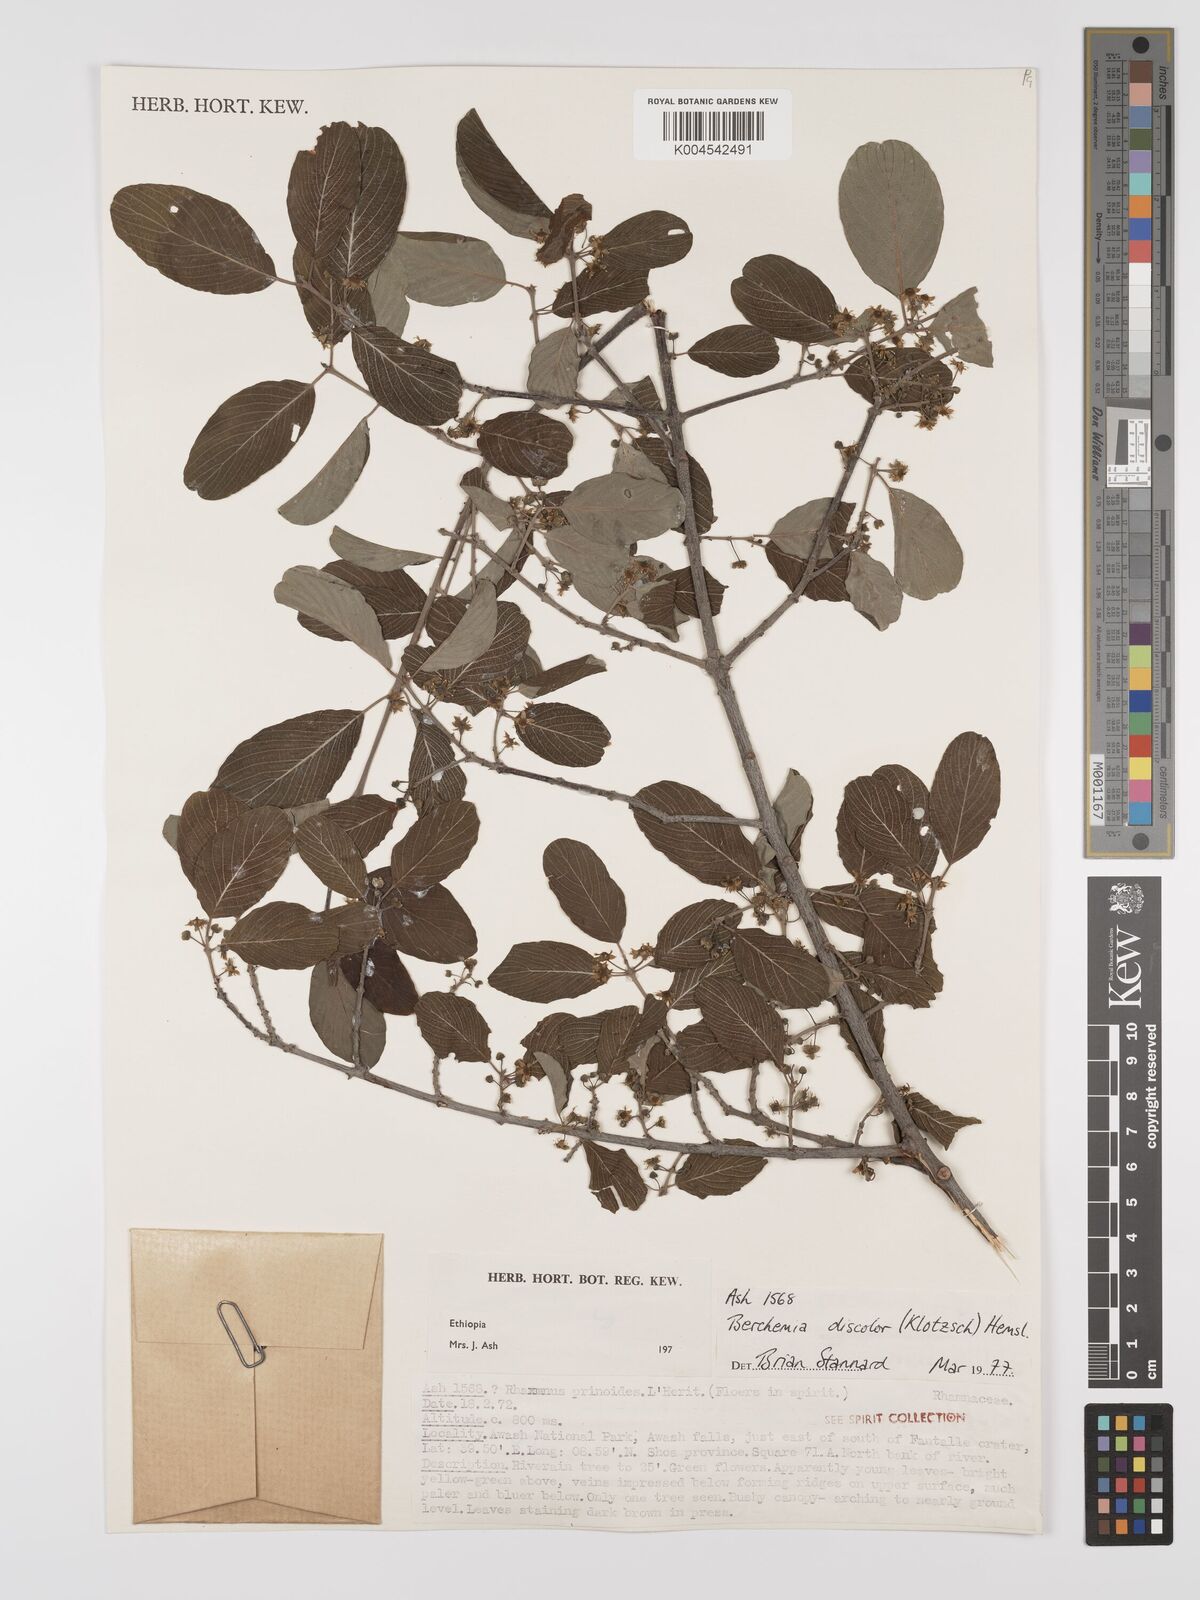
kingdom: Plantae
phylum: Tracheophyta
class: Magnoliopsida
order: Rosales
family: Rhamnaceae
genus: Phyllogeiton
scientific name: Phyllogeiton discolor
